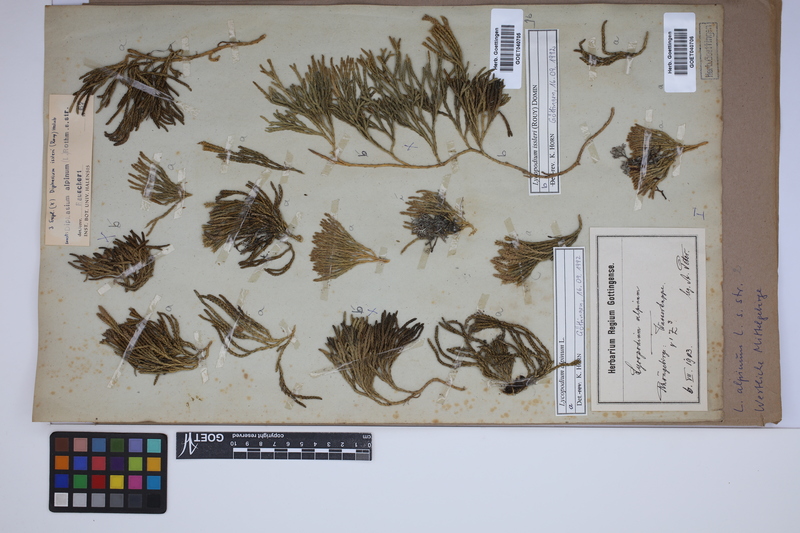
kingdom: Plantae
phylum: Tracheophyta
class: Lycopodiopsida
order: Lycopodiales
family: Lycopodiaceae
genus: Diphasiastrum
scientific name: Diphasiastrum issleri
